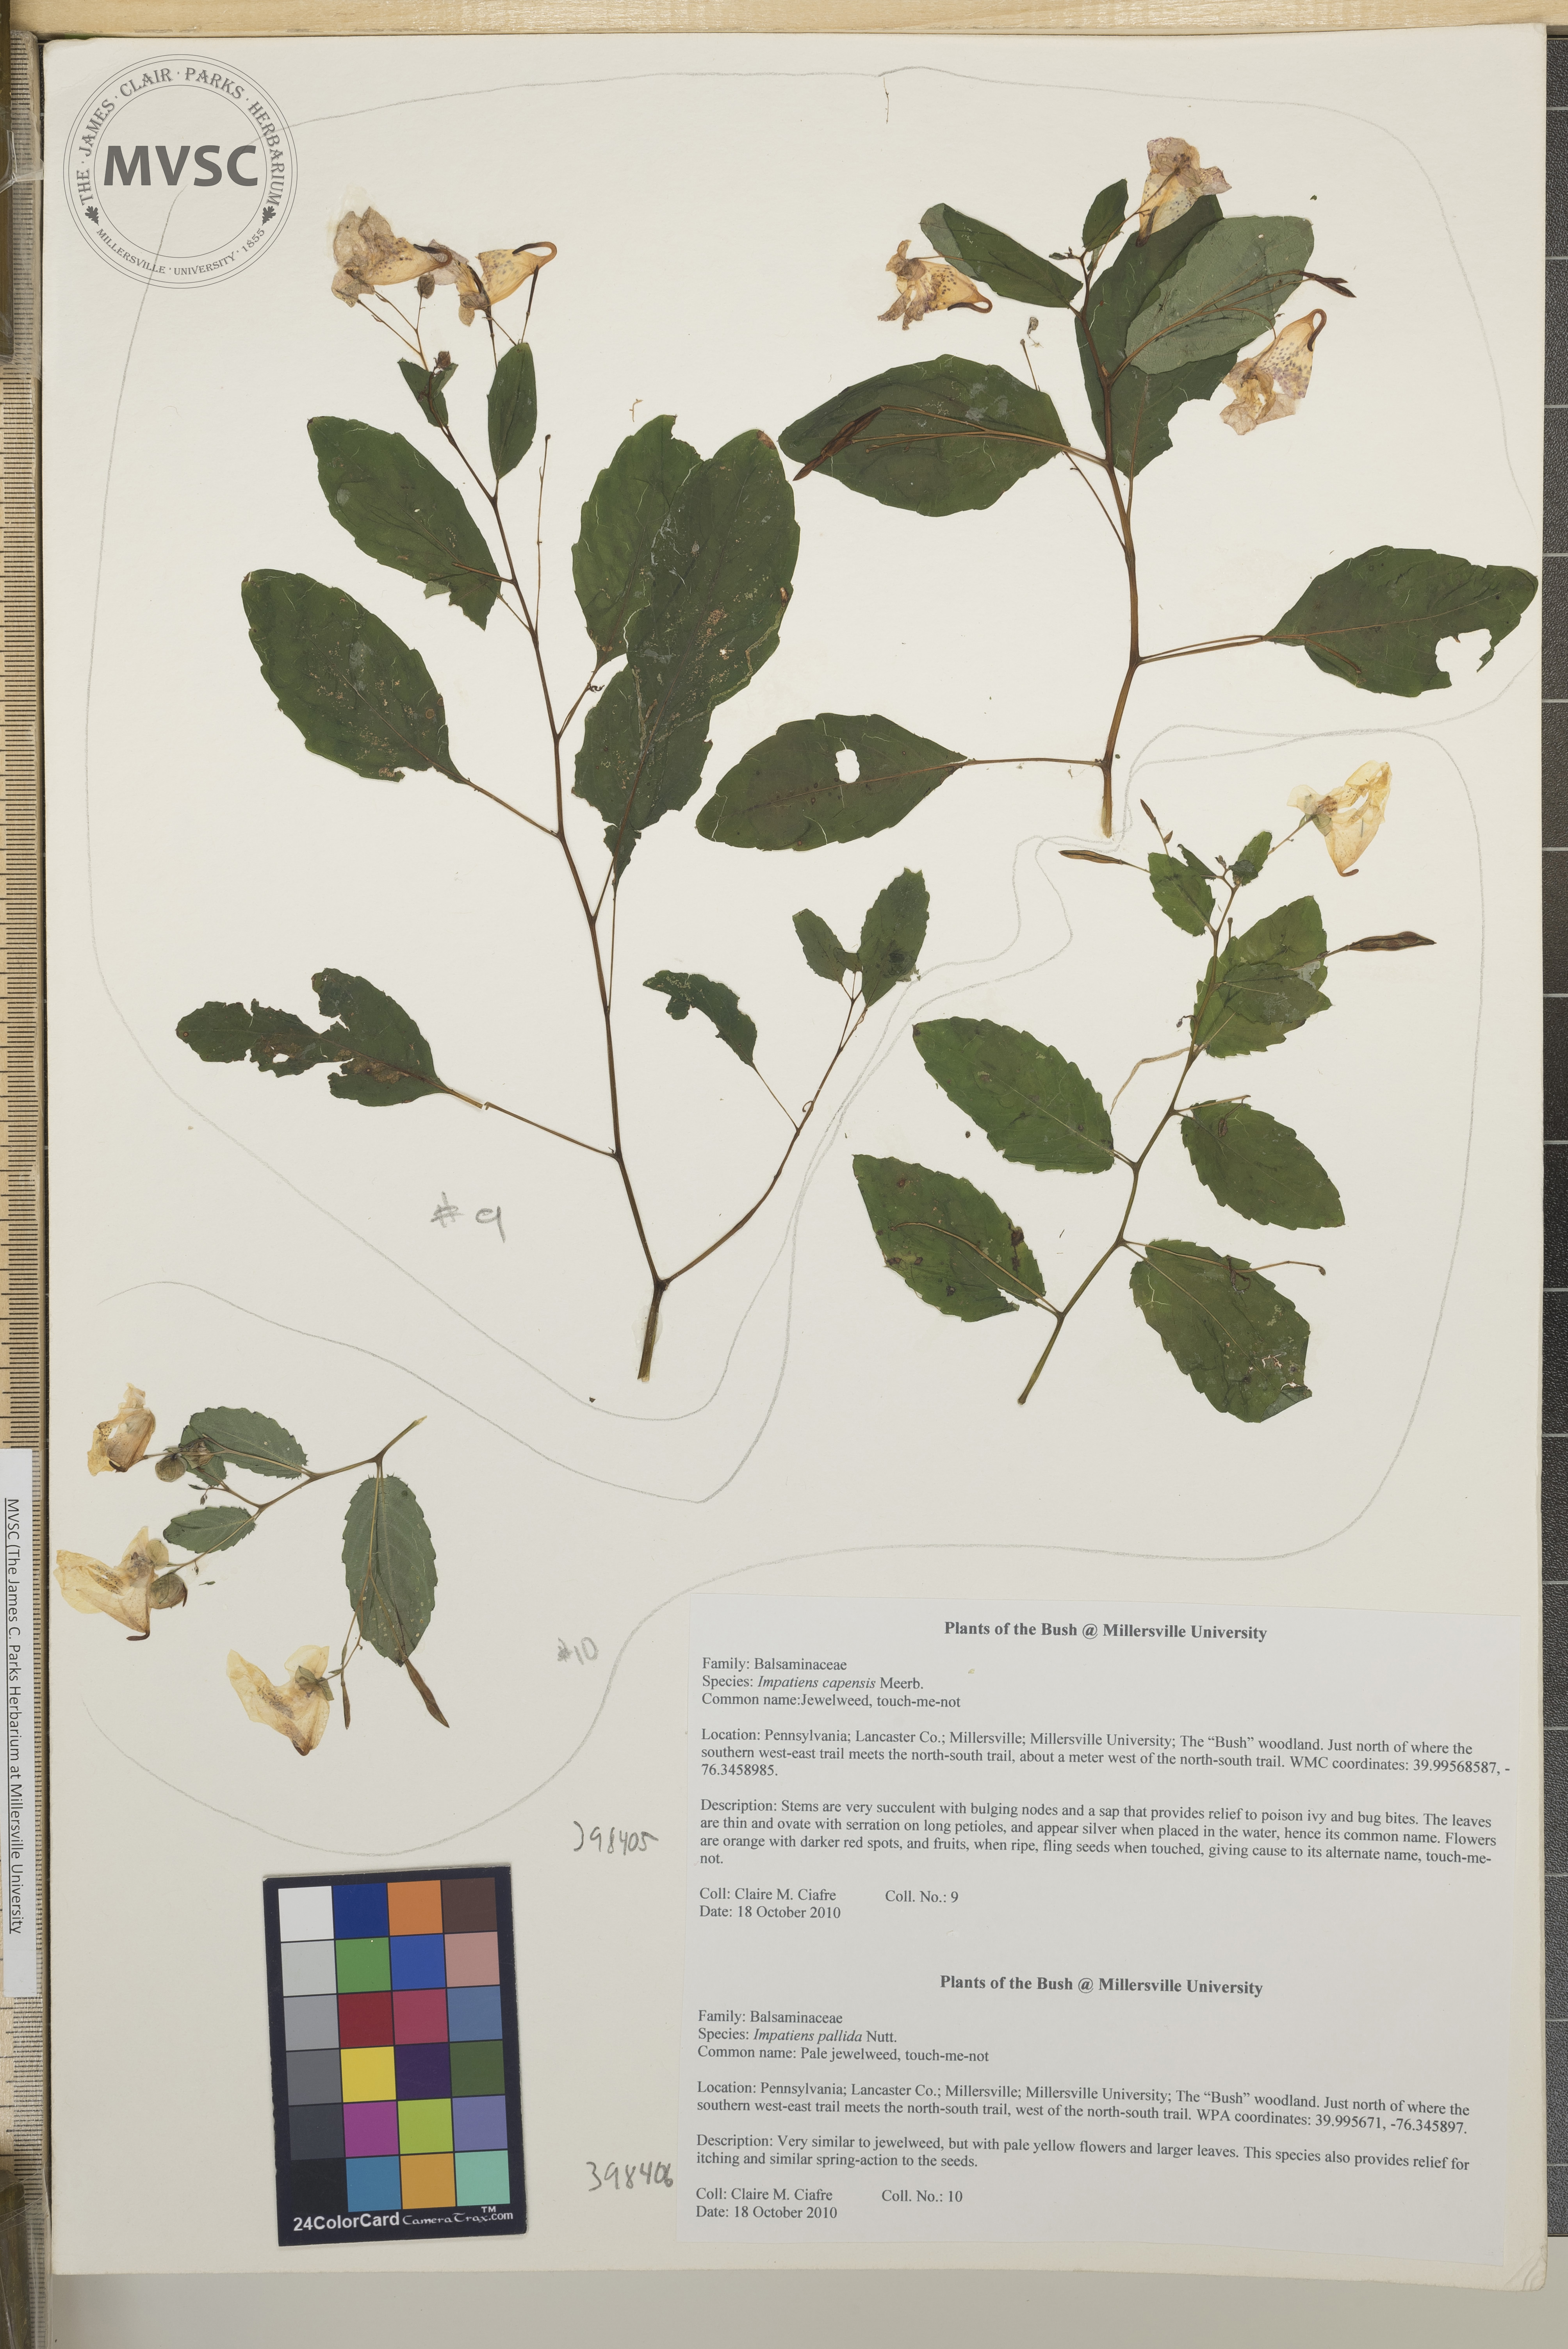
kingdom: Plantae
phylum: Tracheophyta
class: Magnoliopsida
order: Ericales
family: Balsaminaceae
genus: Impatiens
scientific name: Impatiens pallida
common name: Pale jewelweed
